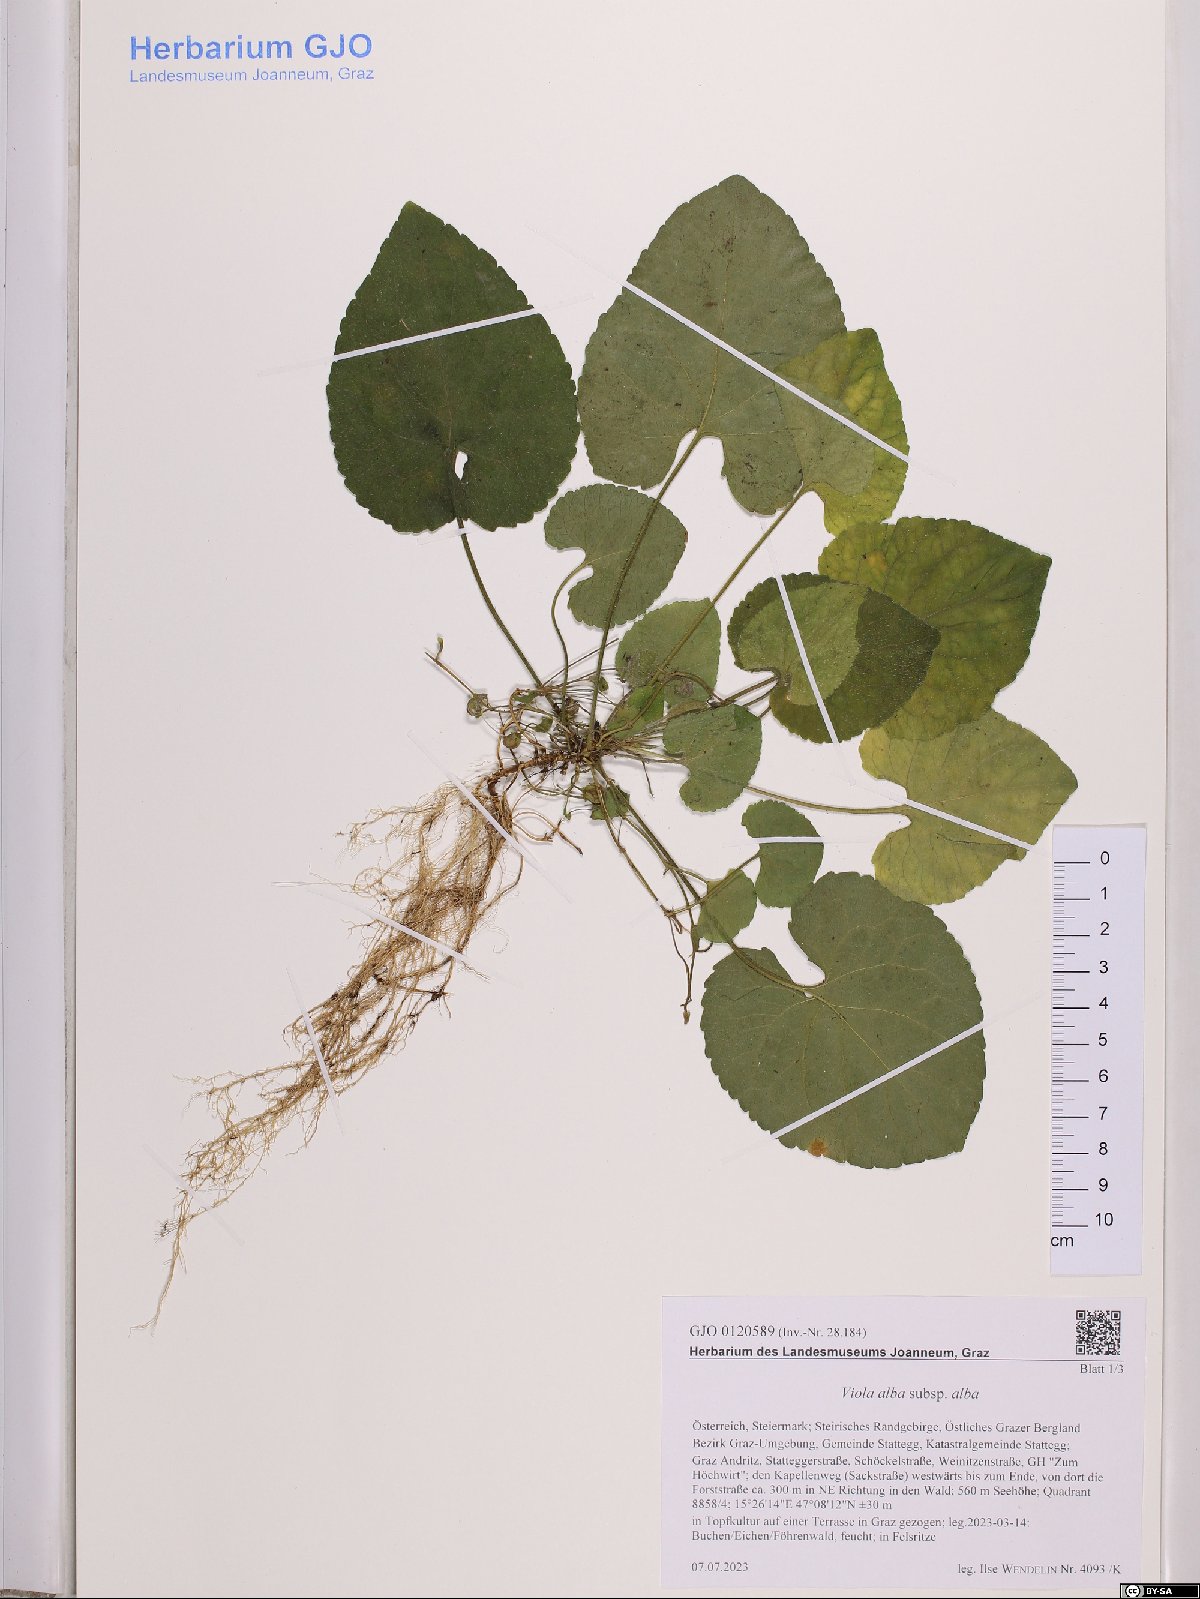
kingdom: Plantae
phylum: Tracheophyta
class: Magnoliopsida
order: Malpighiales
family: Violaceae
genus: Viola
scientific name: Viola alba
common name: White violet
